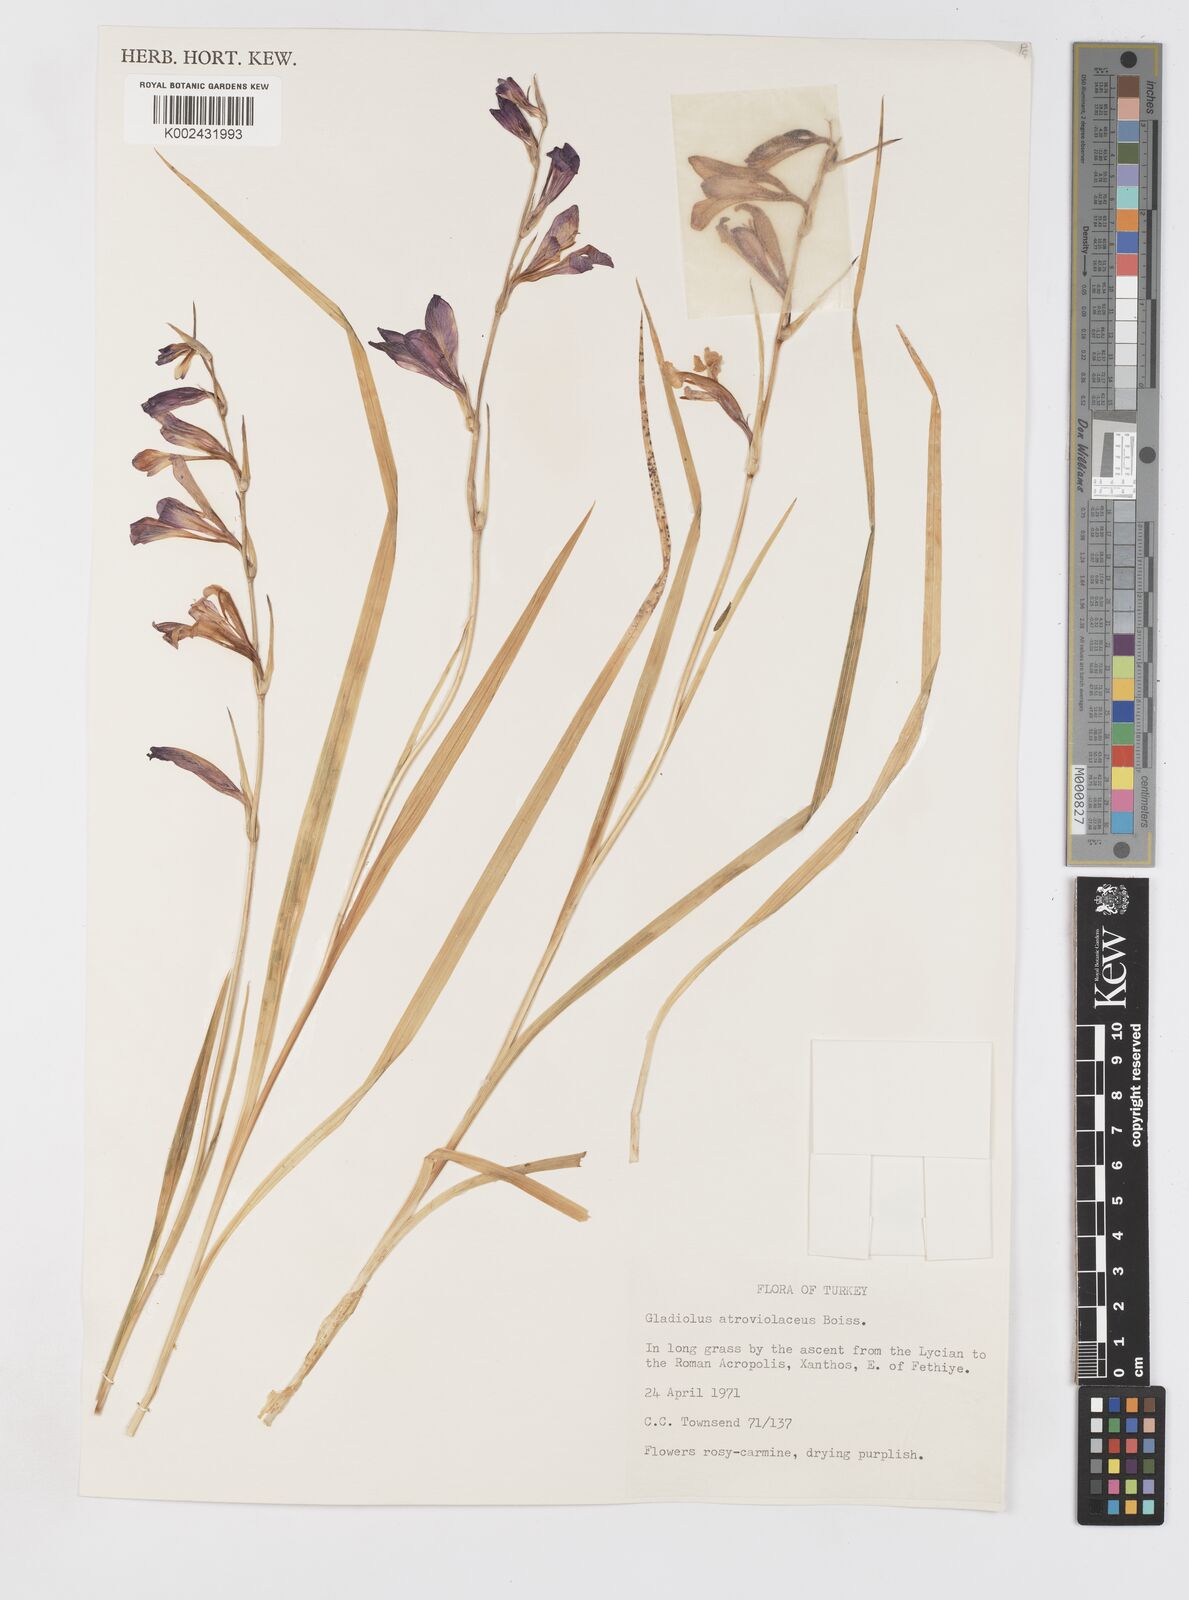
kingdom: Plantae
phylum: Tracheophyta
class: Liliopsida
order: Asparagales
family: Iridaceae
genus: Gladiolus
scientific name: Gladiolus illyricus
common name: Wild gladiolus
